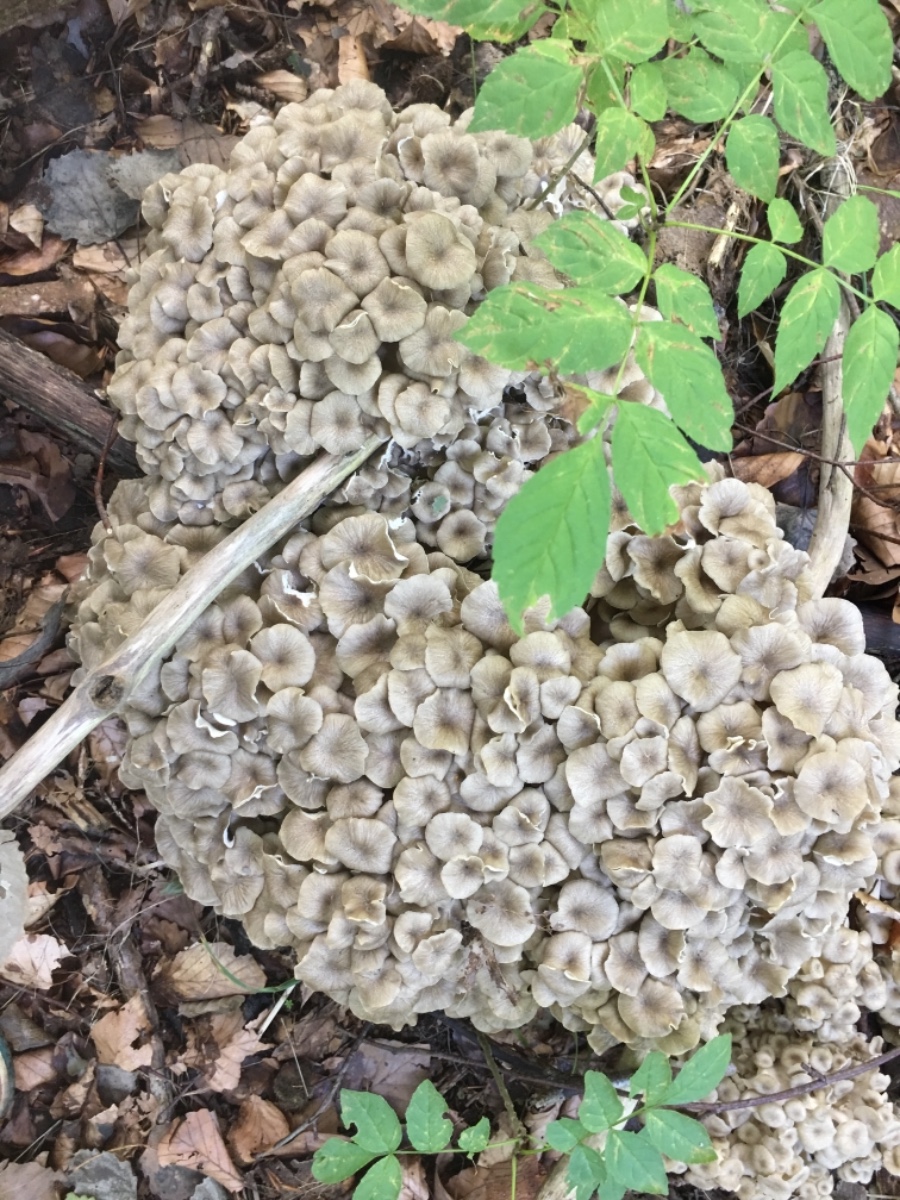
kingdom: Fungi
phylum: Basidiomycota
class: Agaricomycetes
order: Polyporales
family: Polyporaceae
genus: Polyporus
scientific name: Polyporus umbellatus
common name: skærmformet stilkporesvamp
